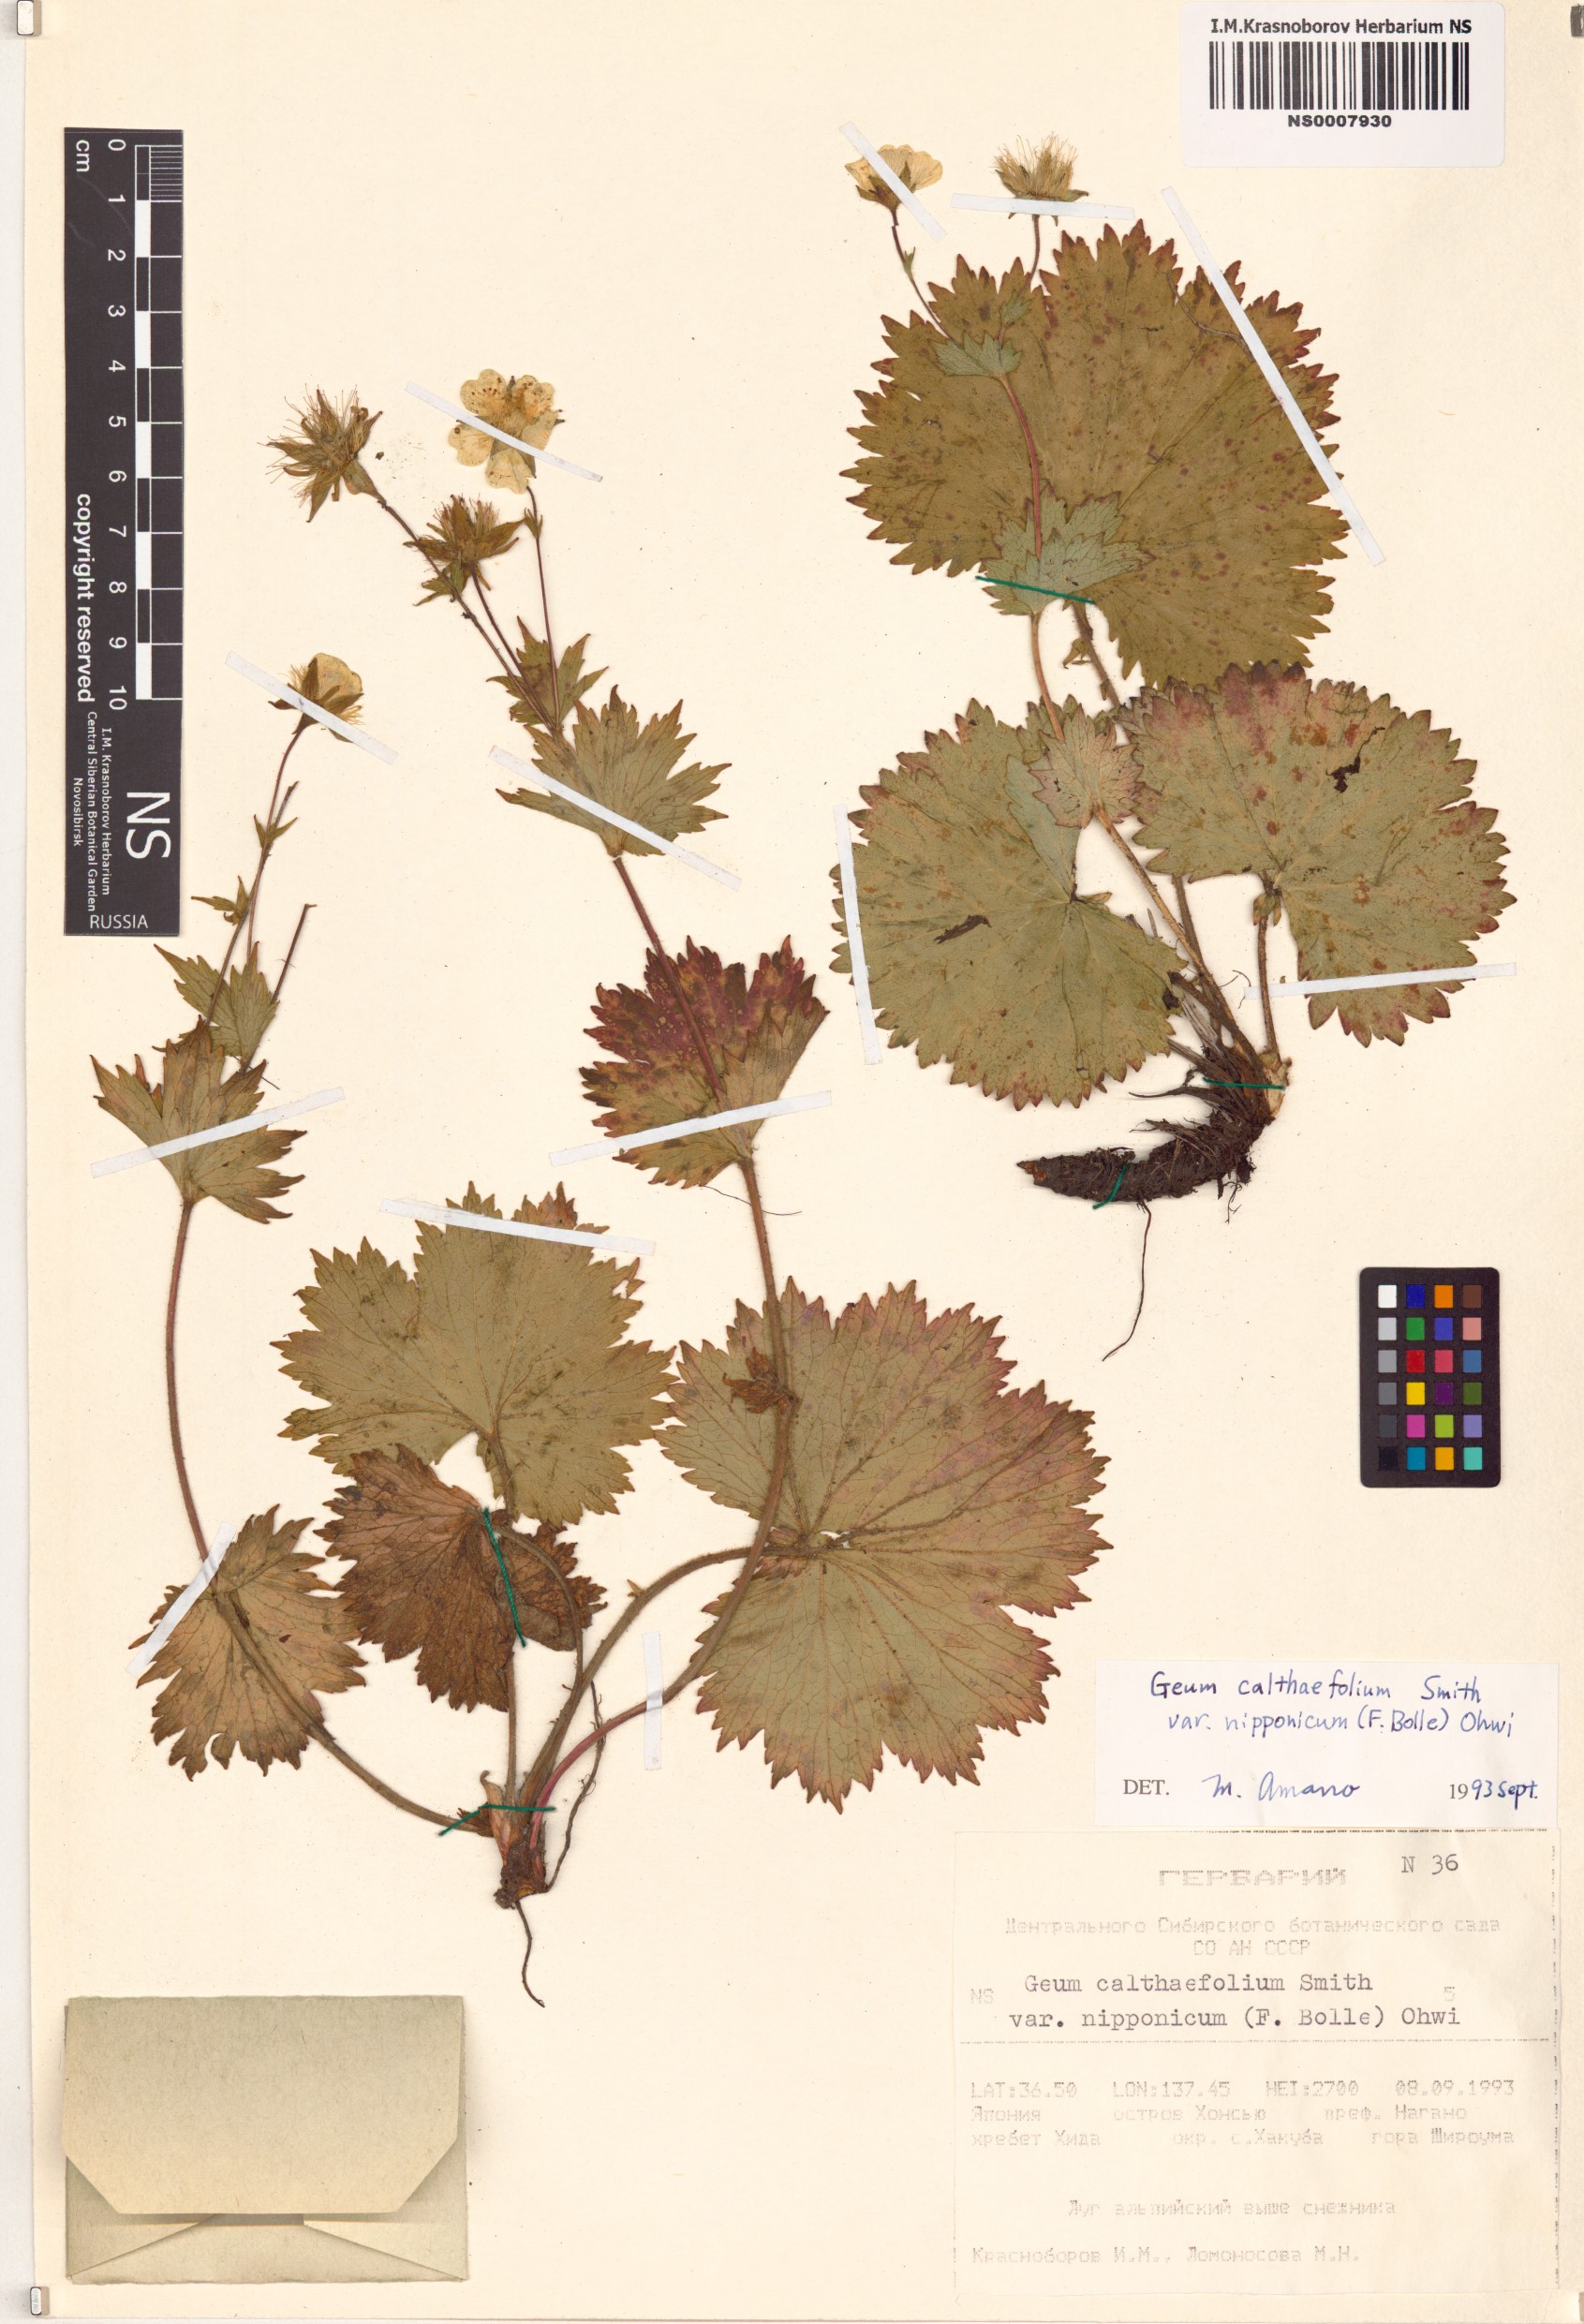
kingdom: Plantae
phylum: Tracheophyta
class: Magnoliopsida
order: Rosales
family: Rosaceae
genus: Geum
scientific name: Geum calthifolium
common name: Caltha-leaved avens
